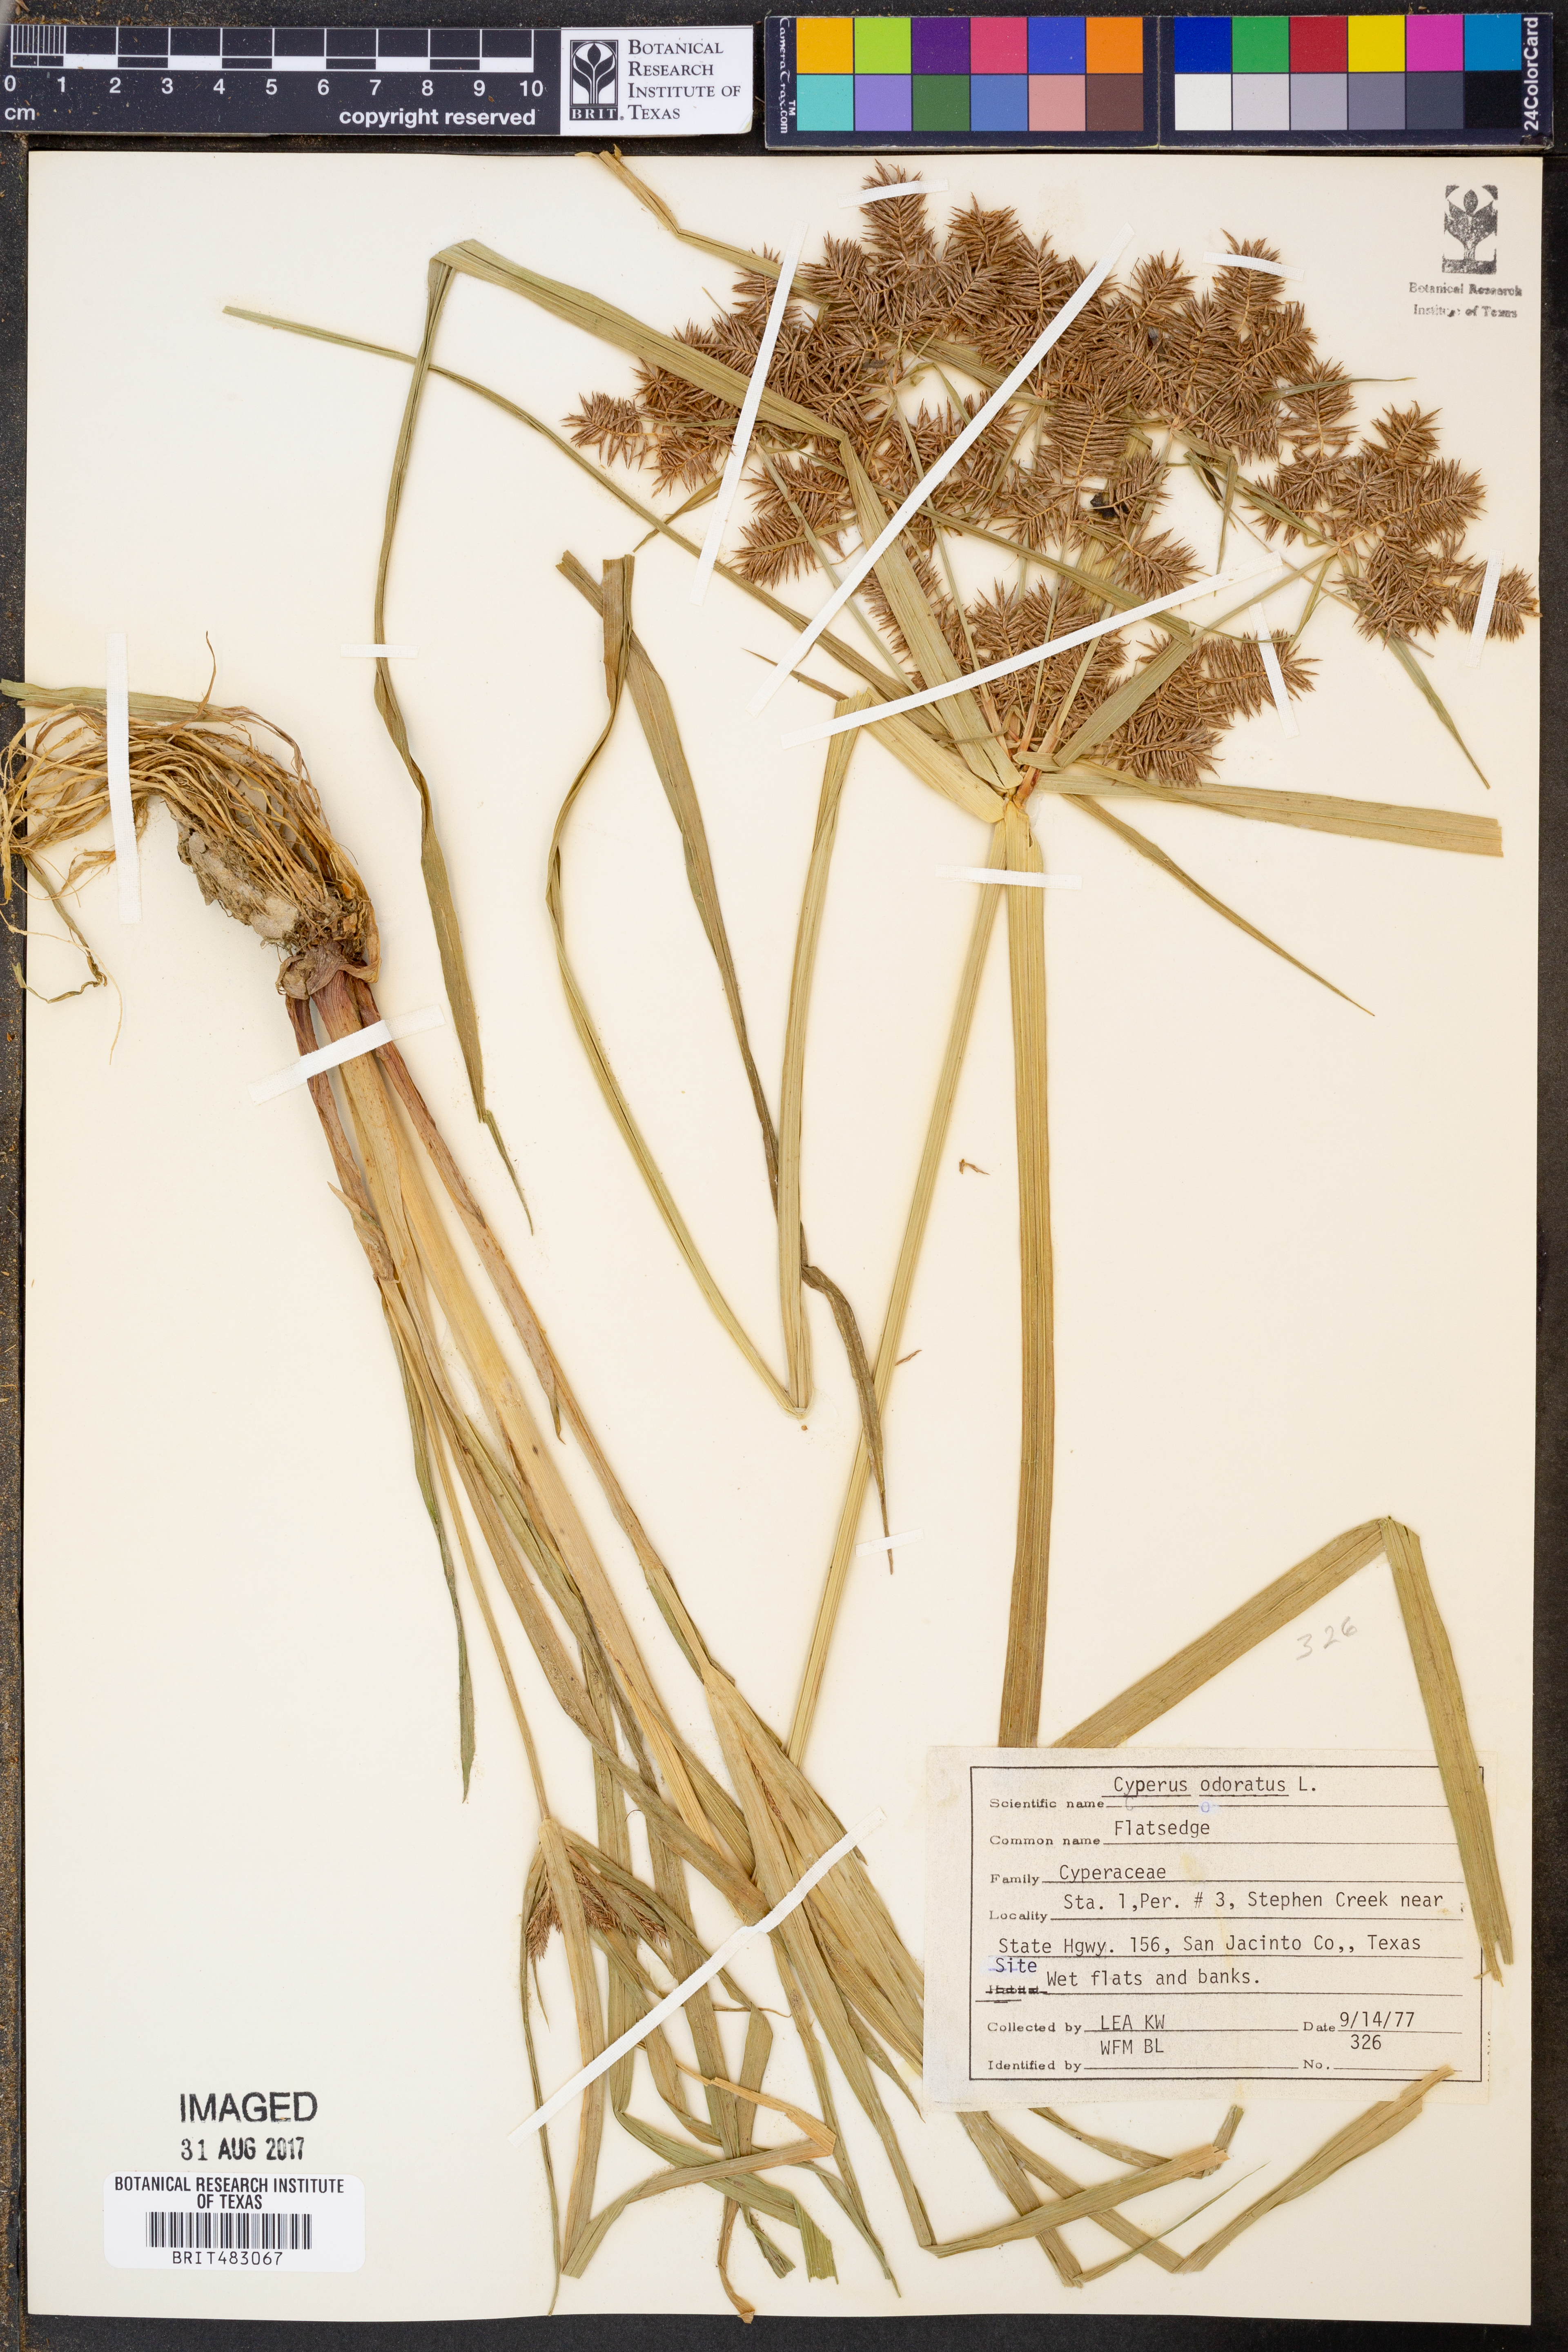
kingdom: Plantae
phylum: Tracheophyta
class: Liliopsida
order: Poales
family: Cyperaceae
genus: Cyperus
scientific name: Cyperus odoratus
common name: Fragrant flatsedge
